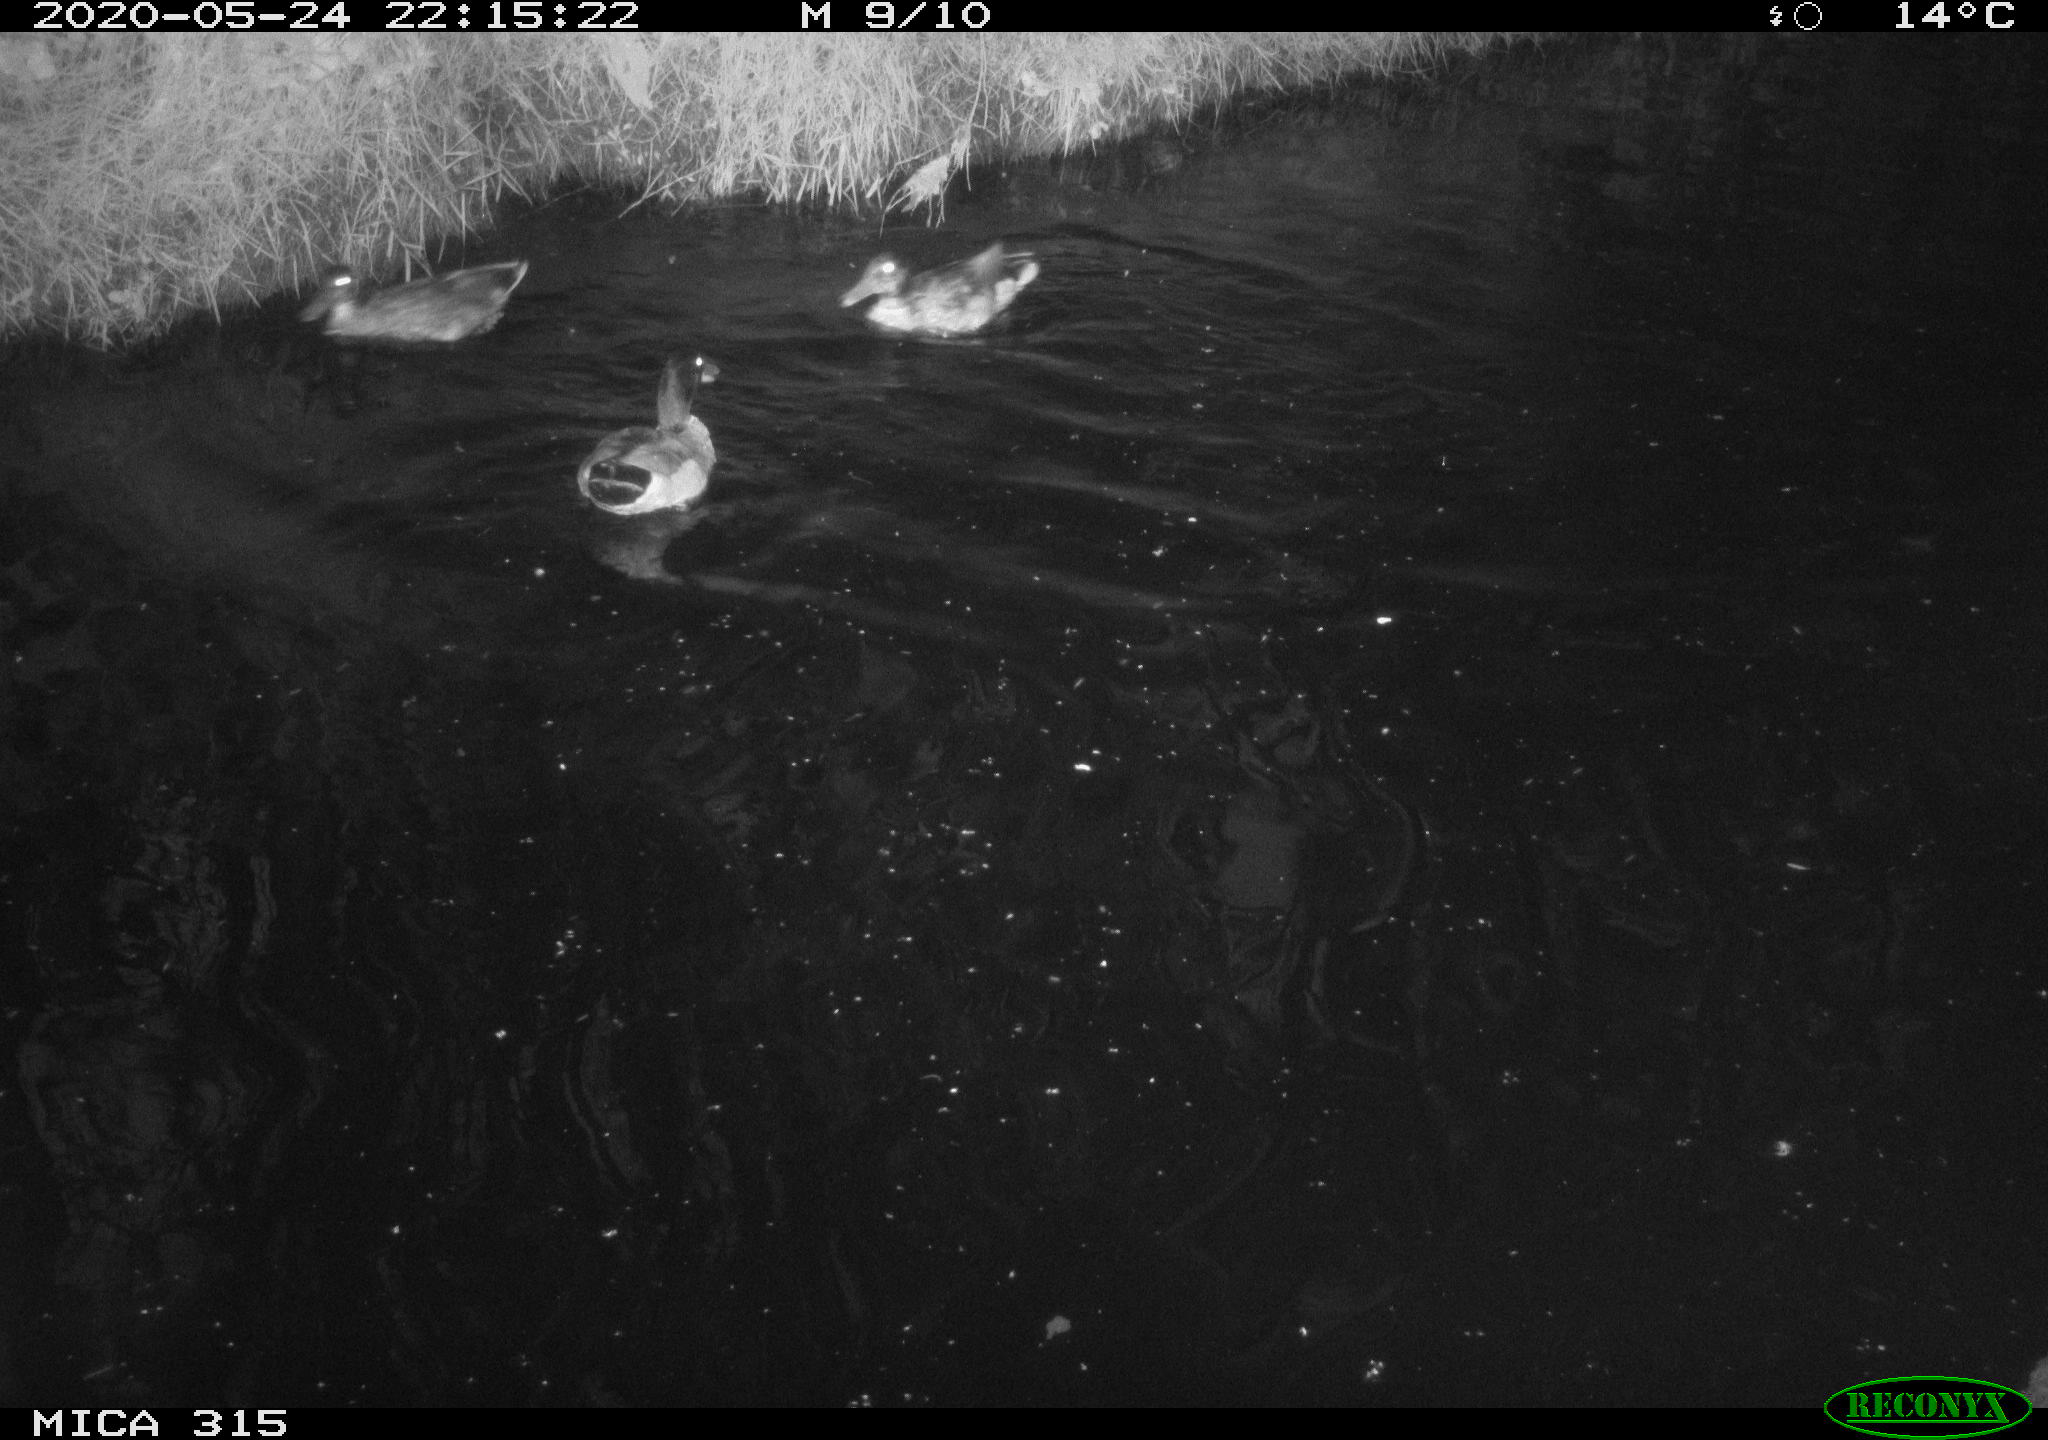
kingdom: Animalia
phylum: Chordata
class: Aves
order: Anseriformes
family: Anatidae
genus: Anas
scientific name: Anas platyrhynchos
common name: Mallard
